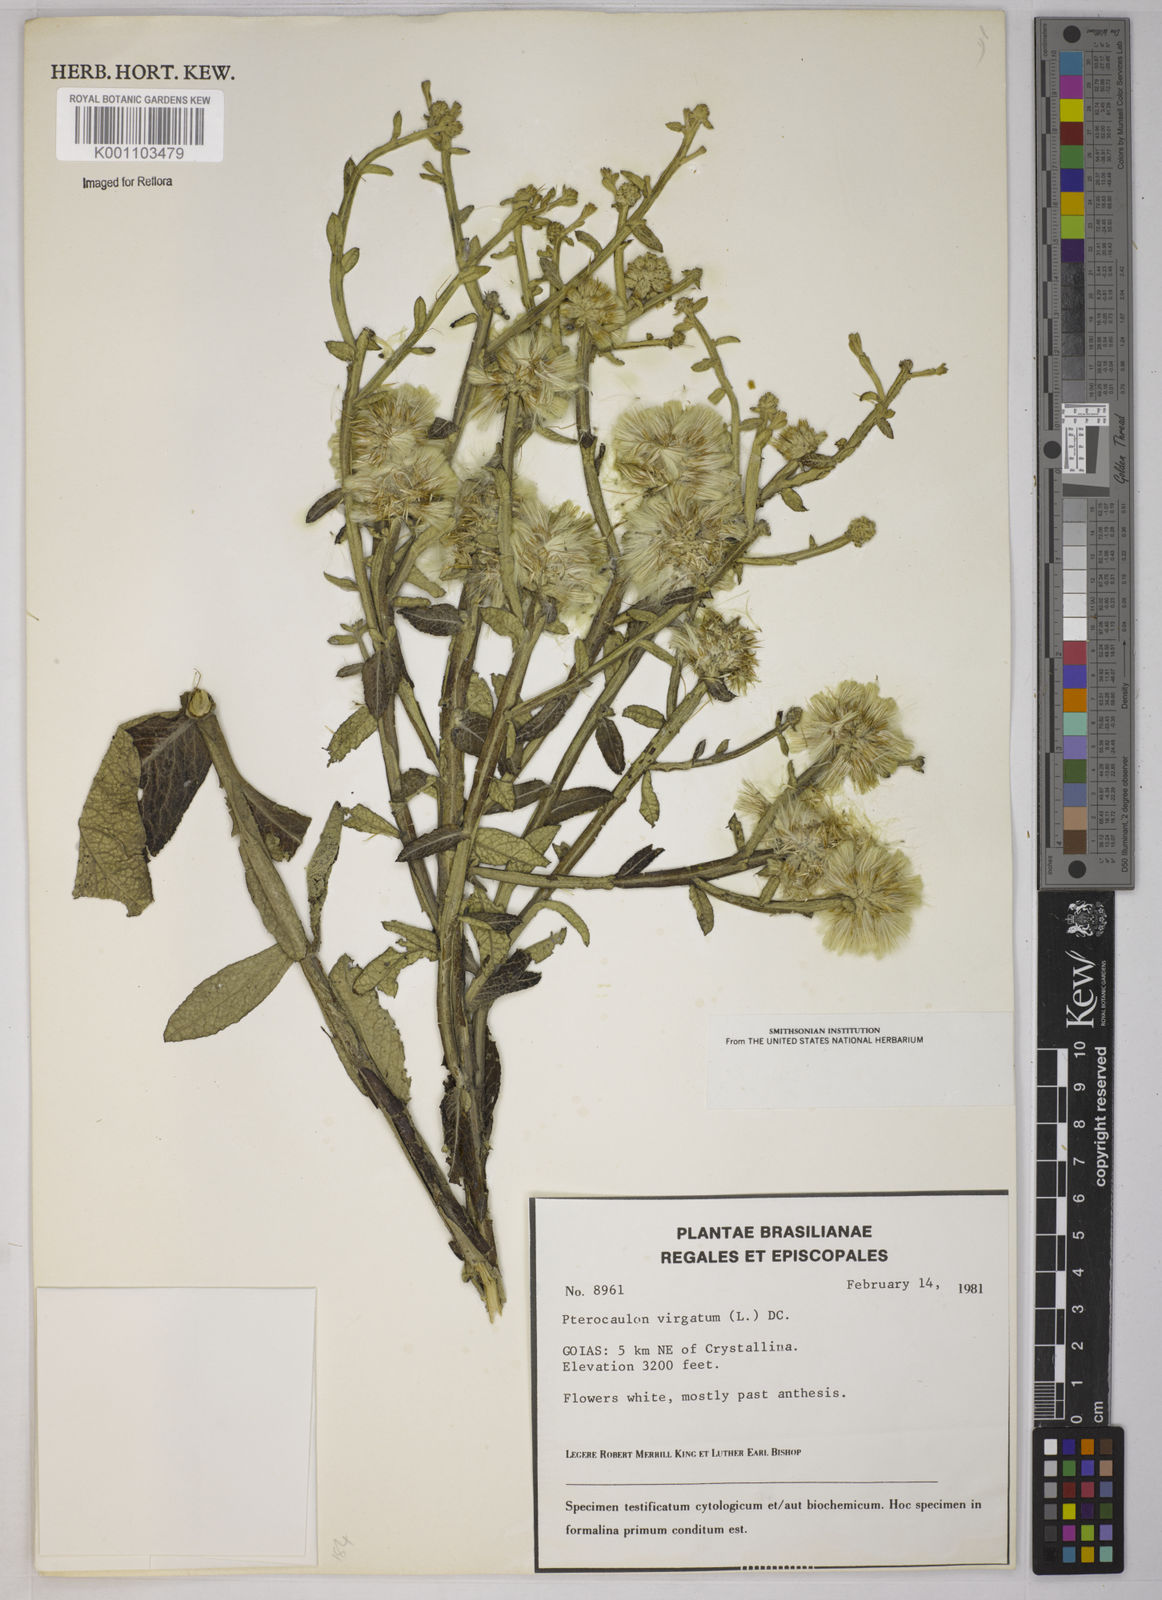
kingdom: Plantae
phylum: Tracheophyta
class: Magnoliopsida
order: Asterales
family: Asteraceae
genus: Pterocaulon
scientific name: Pterocaulon virgatum
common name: Wand blackroot
